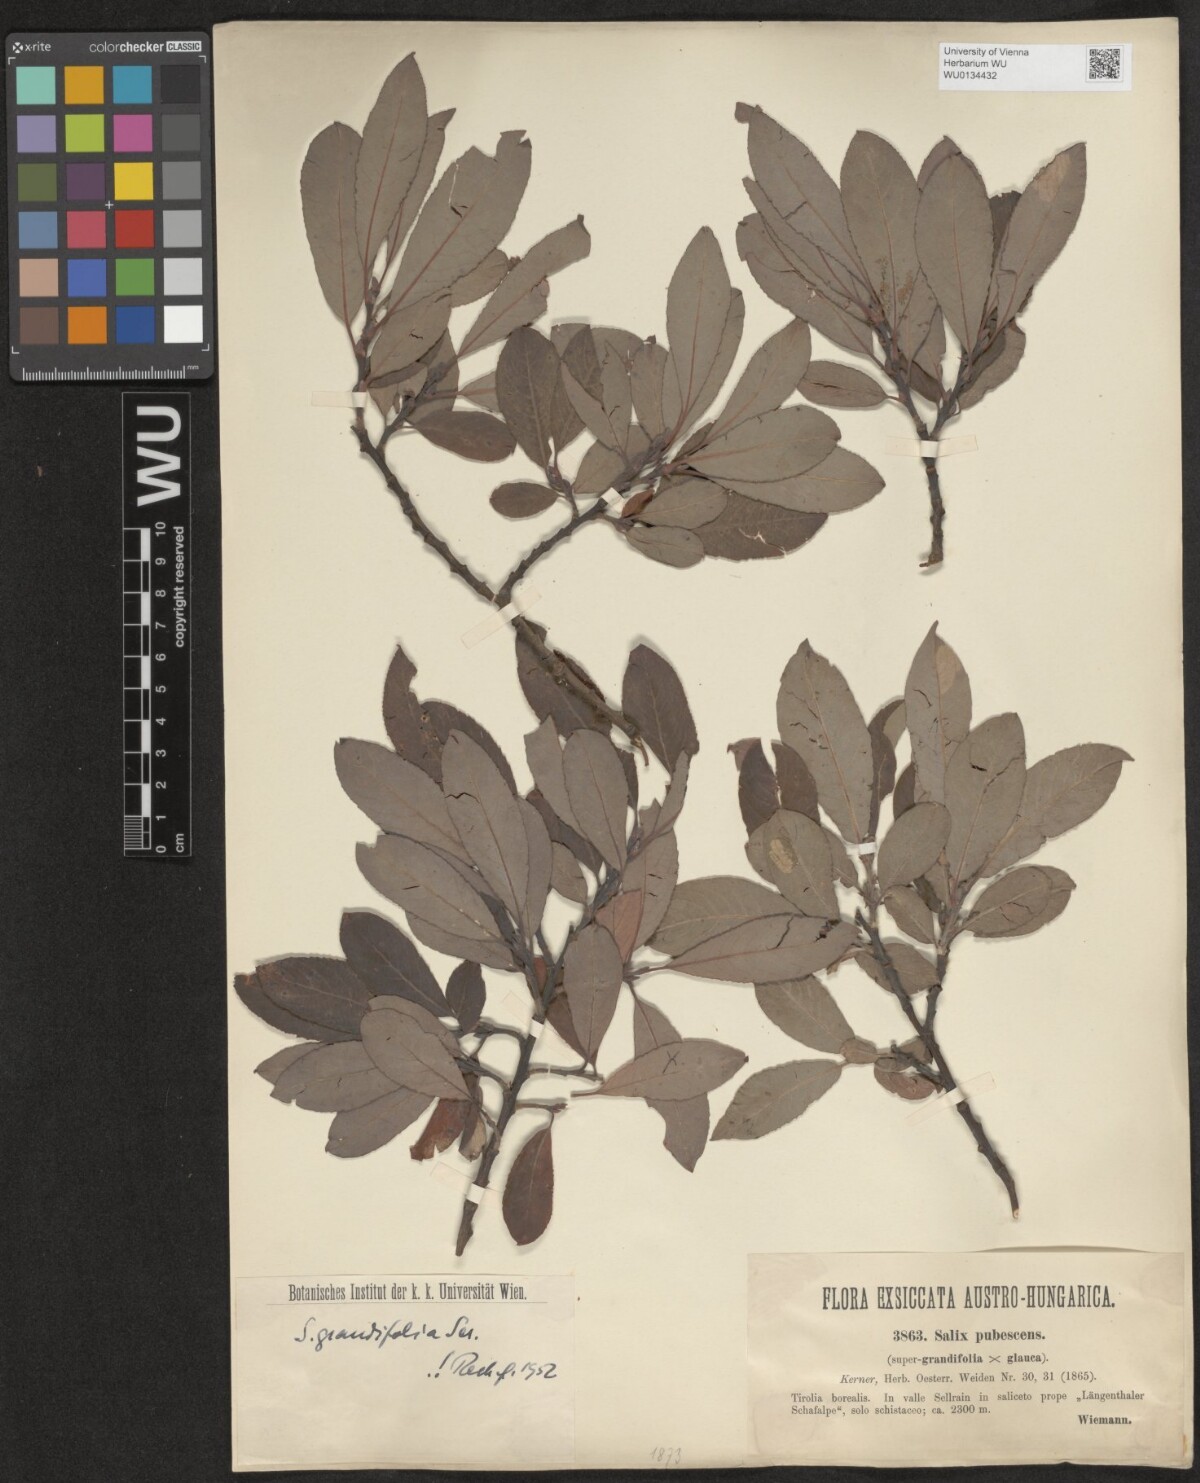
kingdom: Plantae
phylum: Tracheophyta
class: Magnoliopsida
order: Malpighiales
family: Salicaceae
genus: Salix
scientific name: Salix appendiculata
